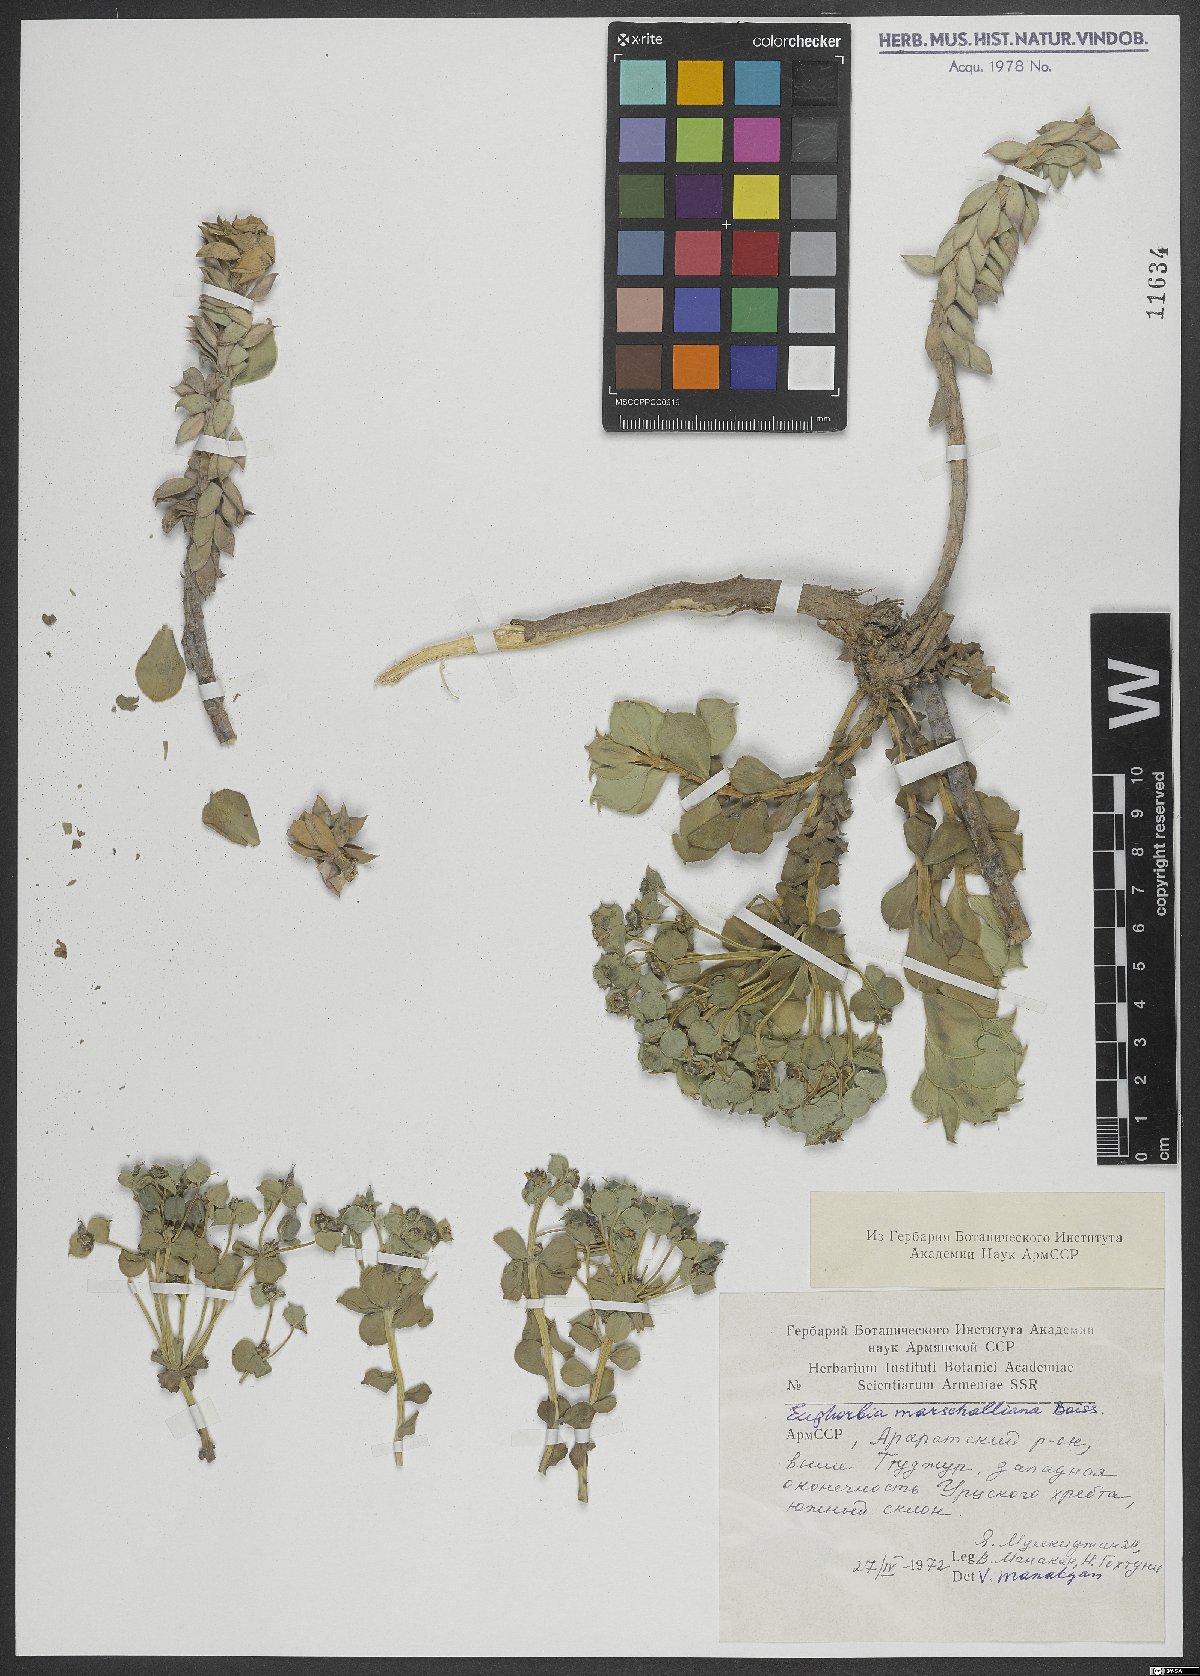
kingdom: Plantae
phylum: Tracheophyta
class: Magnoliopsida
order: Malpighiales
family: Euphorbiaceae
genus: Euphorbia
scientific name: Euphorbia marschalliana
